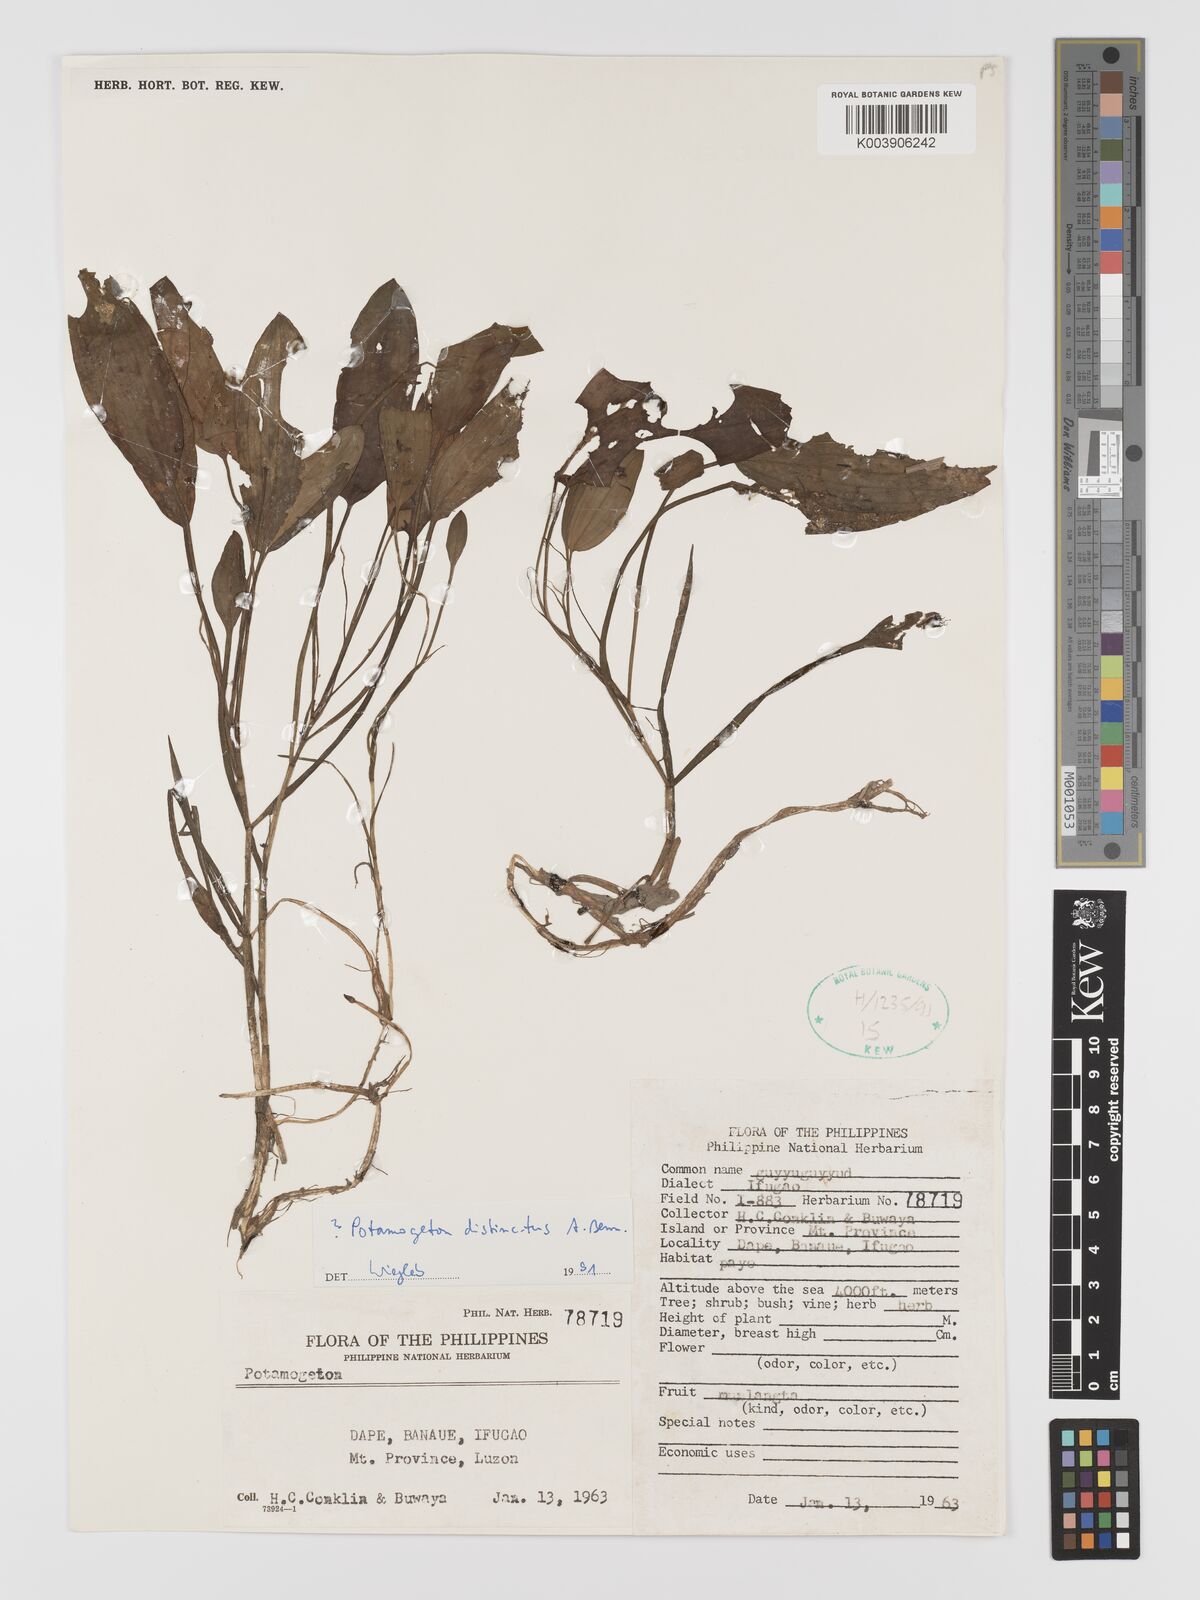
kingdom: Plantae
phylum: Tracheophyta
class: Liliopsida
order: Alismatales
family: Potamogetonaceae
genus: Potamogeton
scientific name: Potamogeton distinctus
